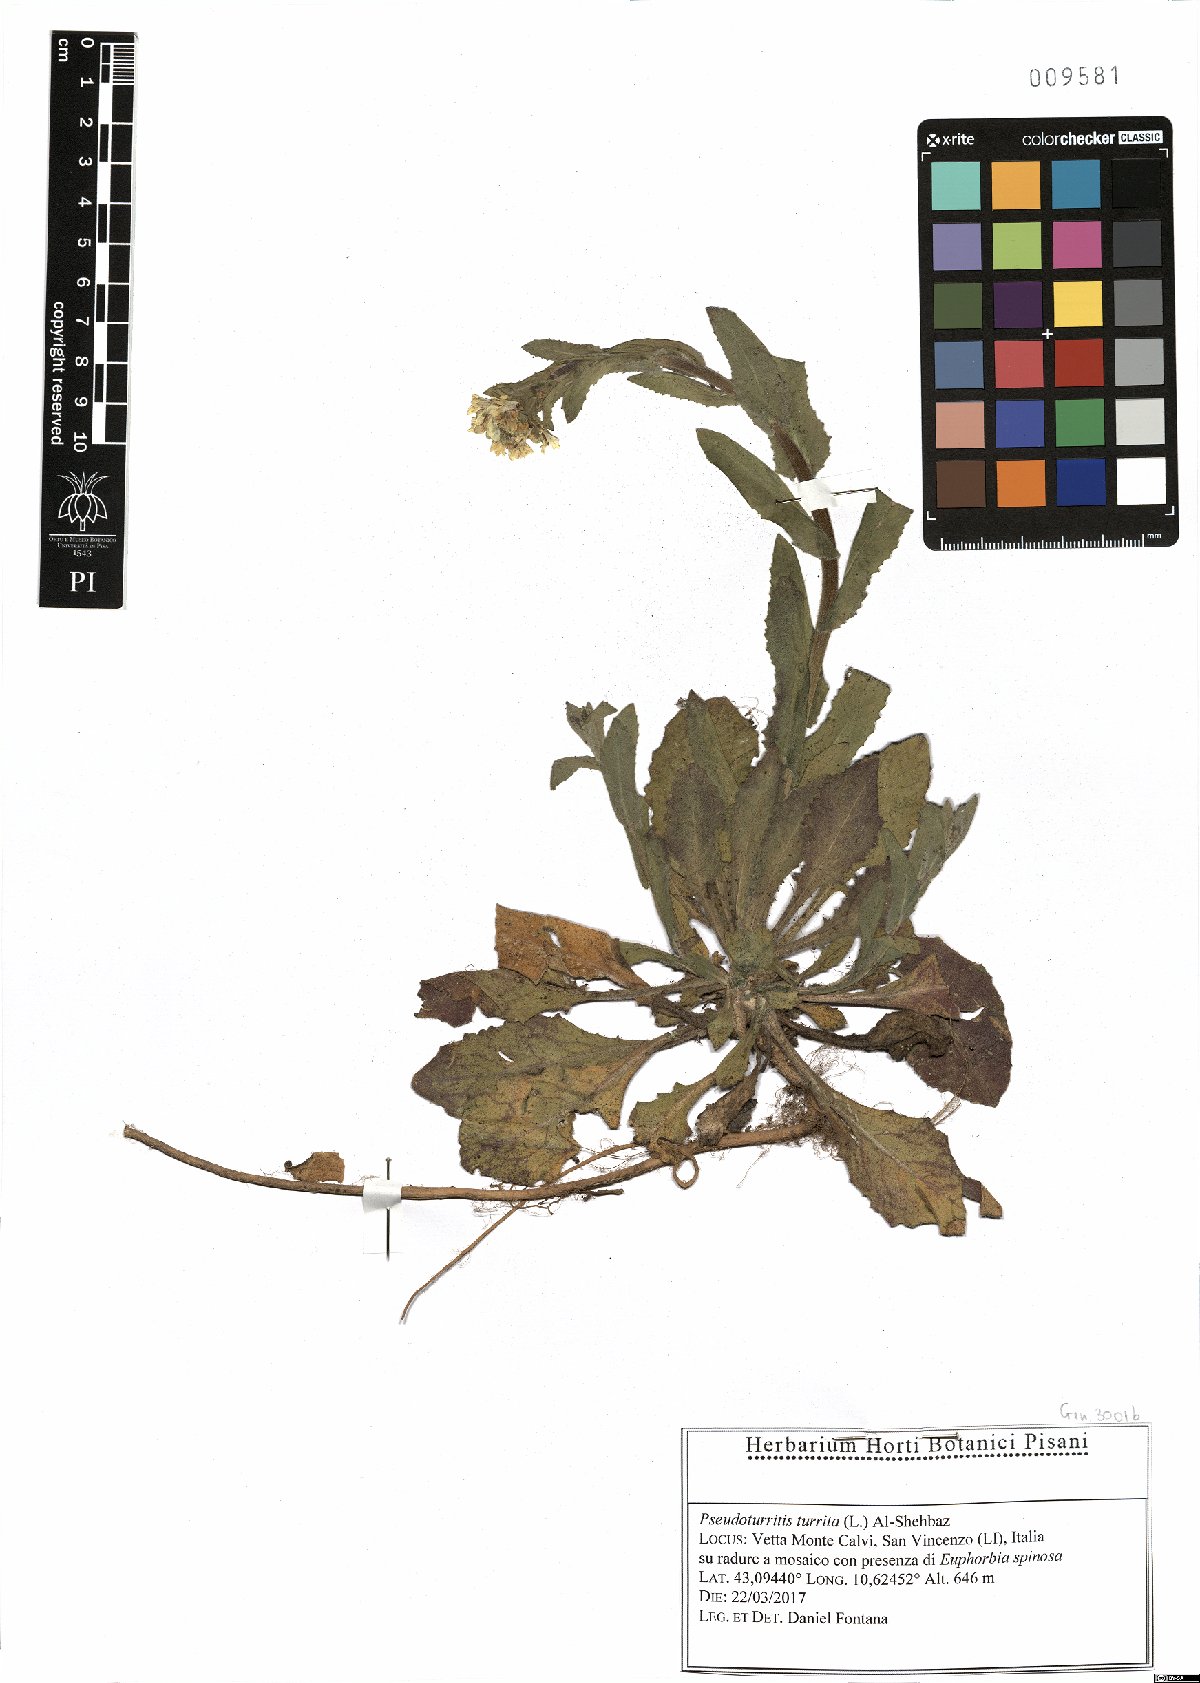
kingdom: Plantae
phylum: Tracheophyta
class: Magnoliopsida
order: Brassicales
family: Brassicaceae
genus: Pseudoturritis
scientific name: Pseudoturritis turrita
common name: Tower cress
